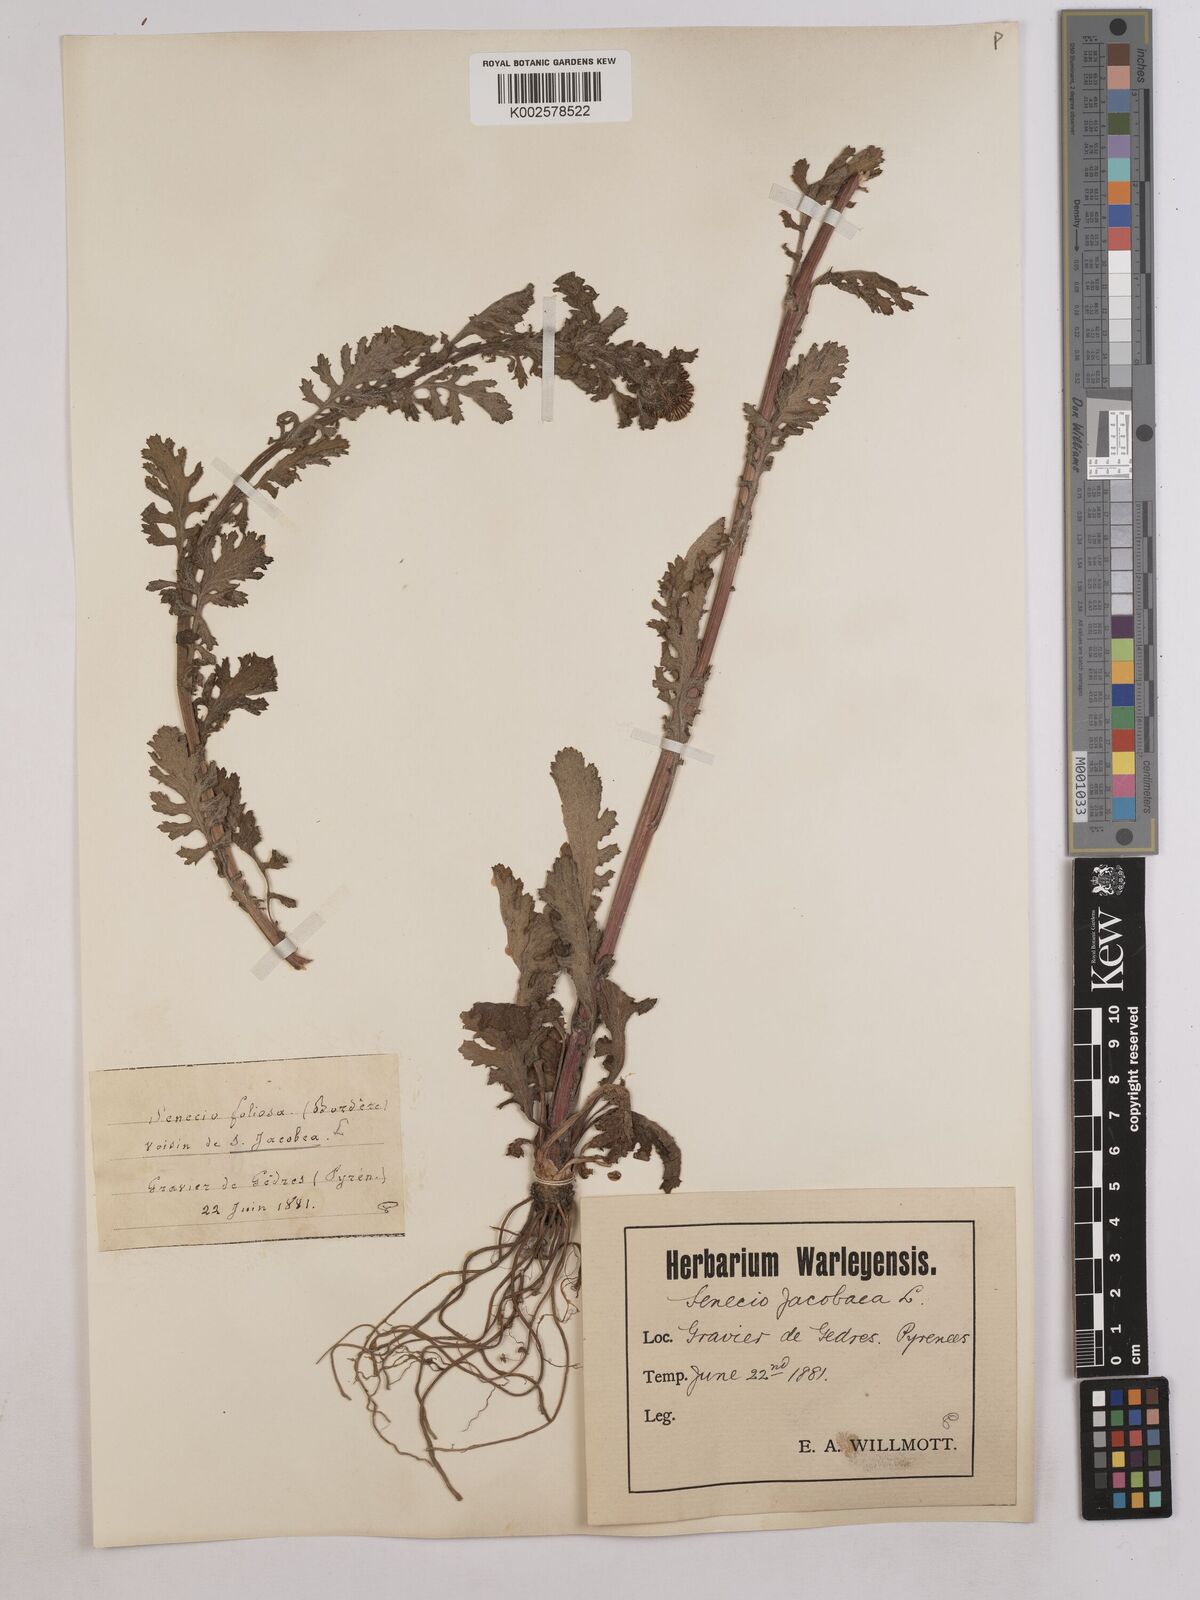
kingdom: Plantae
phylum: Tracheophyta
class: Magnoliopsida
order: Asterales
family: Asteraceae
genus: Jacobaea
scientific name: Jacobaea vulgaris
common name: Stinking willie
